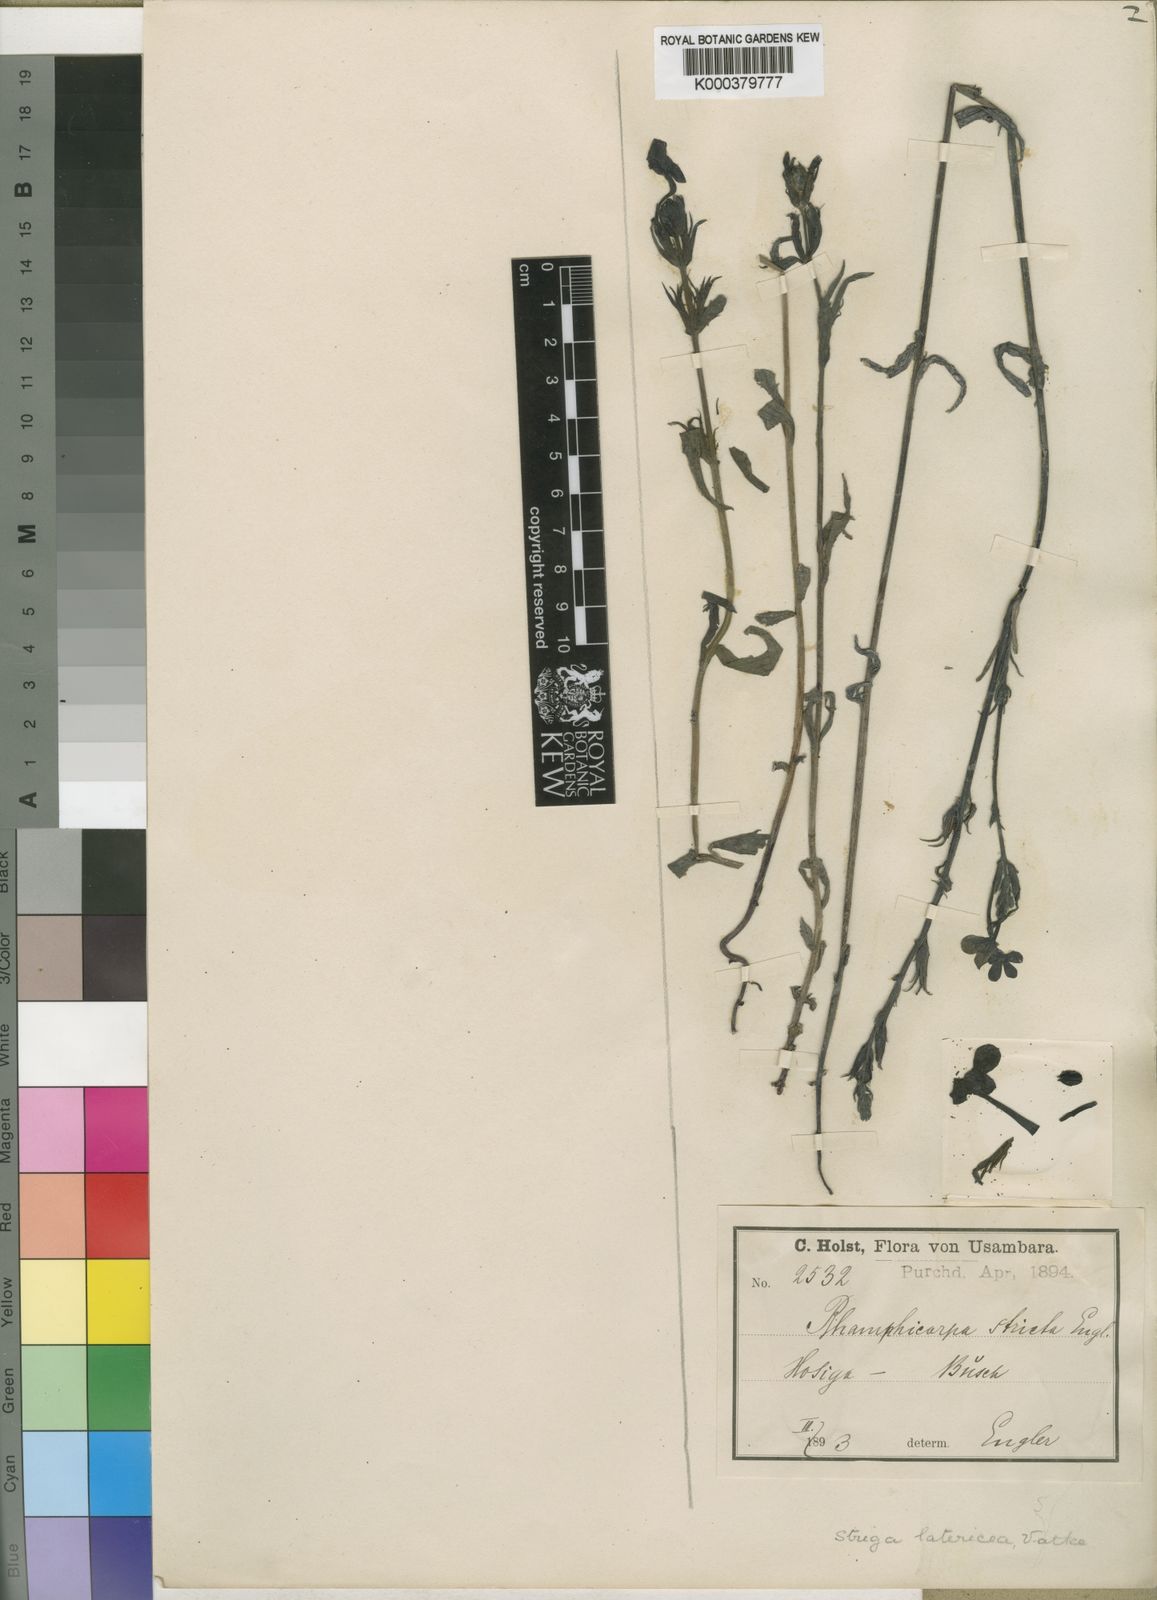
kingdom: Plantae
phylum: Tracheophyta
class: Magnoliopsida
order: Lamiales
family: Orobanchaceae
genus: Striga
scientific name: Striga latericea
